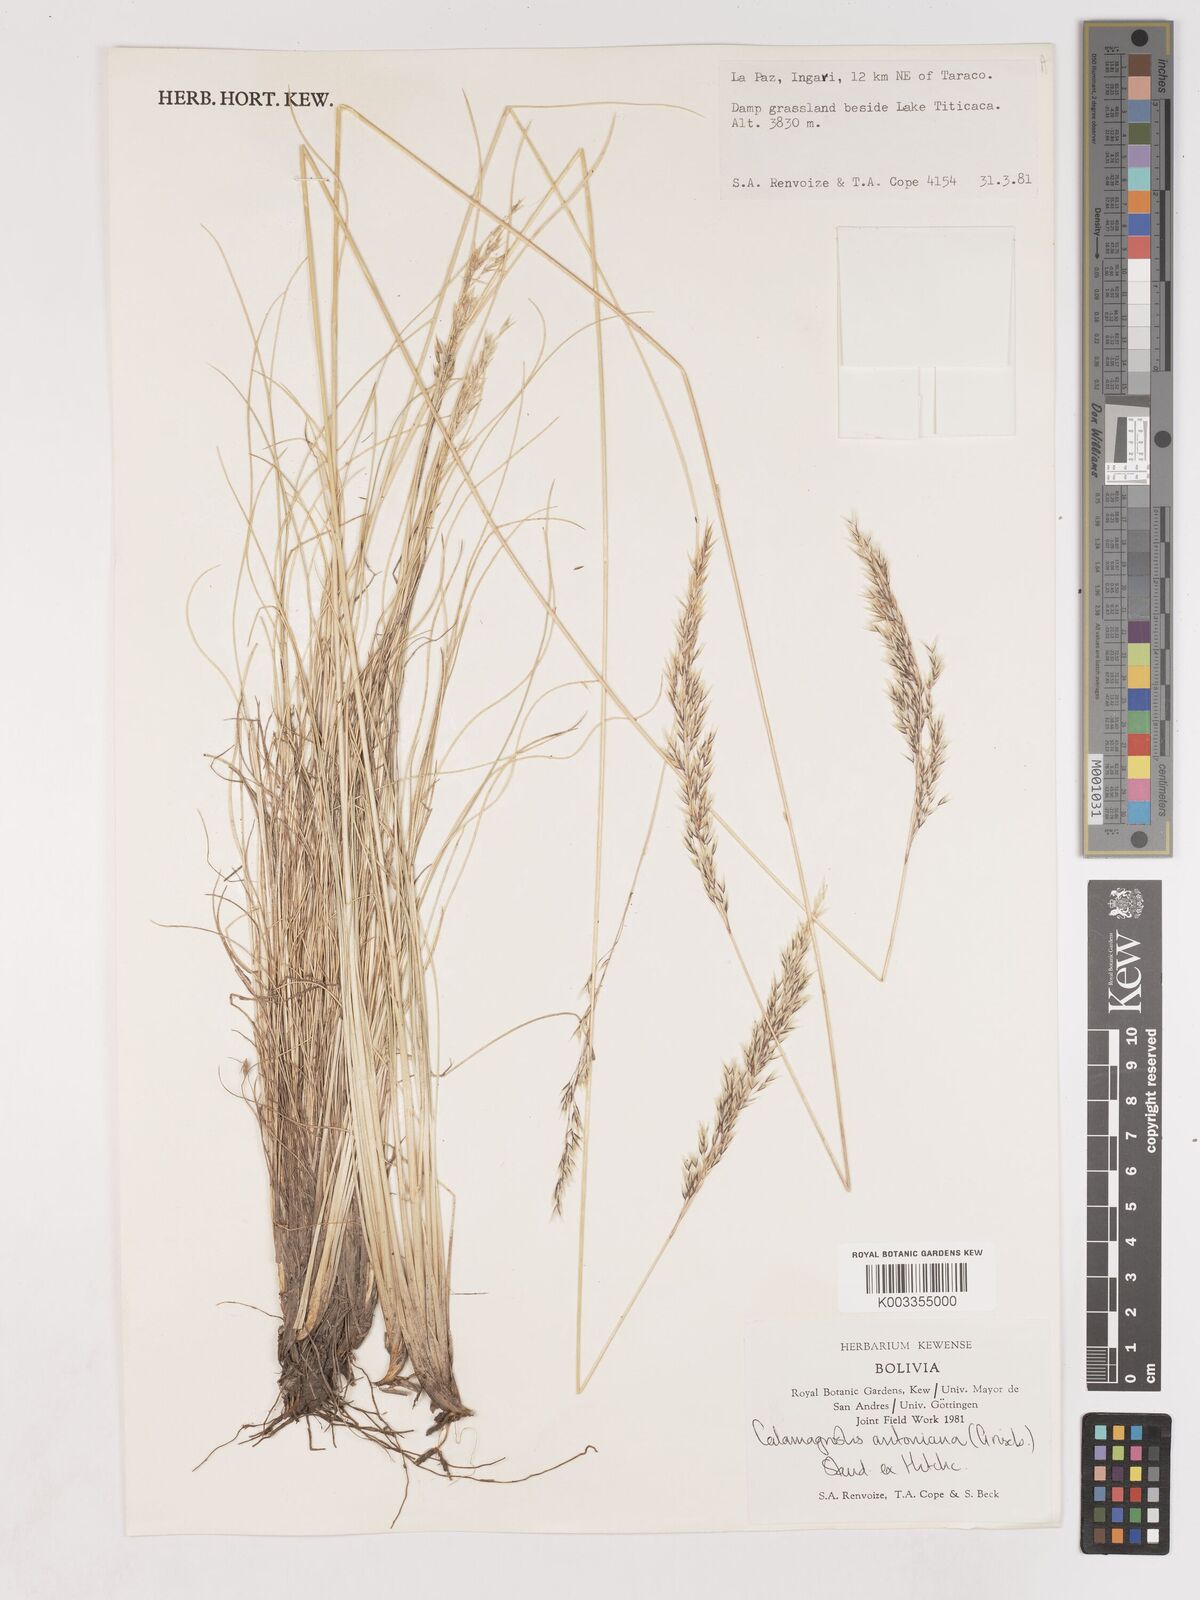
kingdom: Plantae
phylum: Tracheophyta
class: Liliopsida
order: Poales
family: Poaceae
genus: Cinnagrostis
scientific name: Cinnagrostis brevifolia
